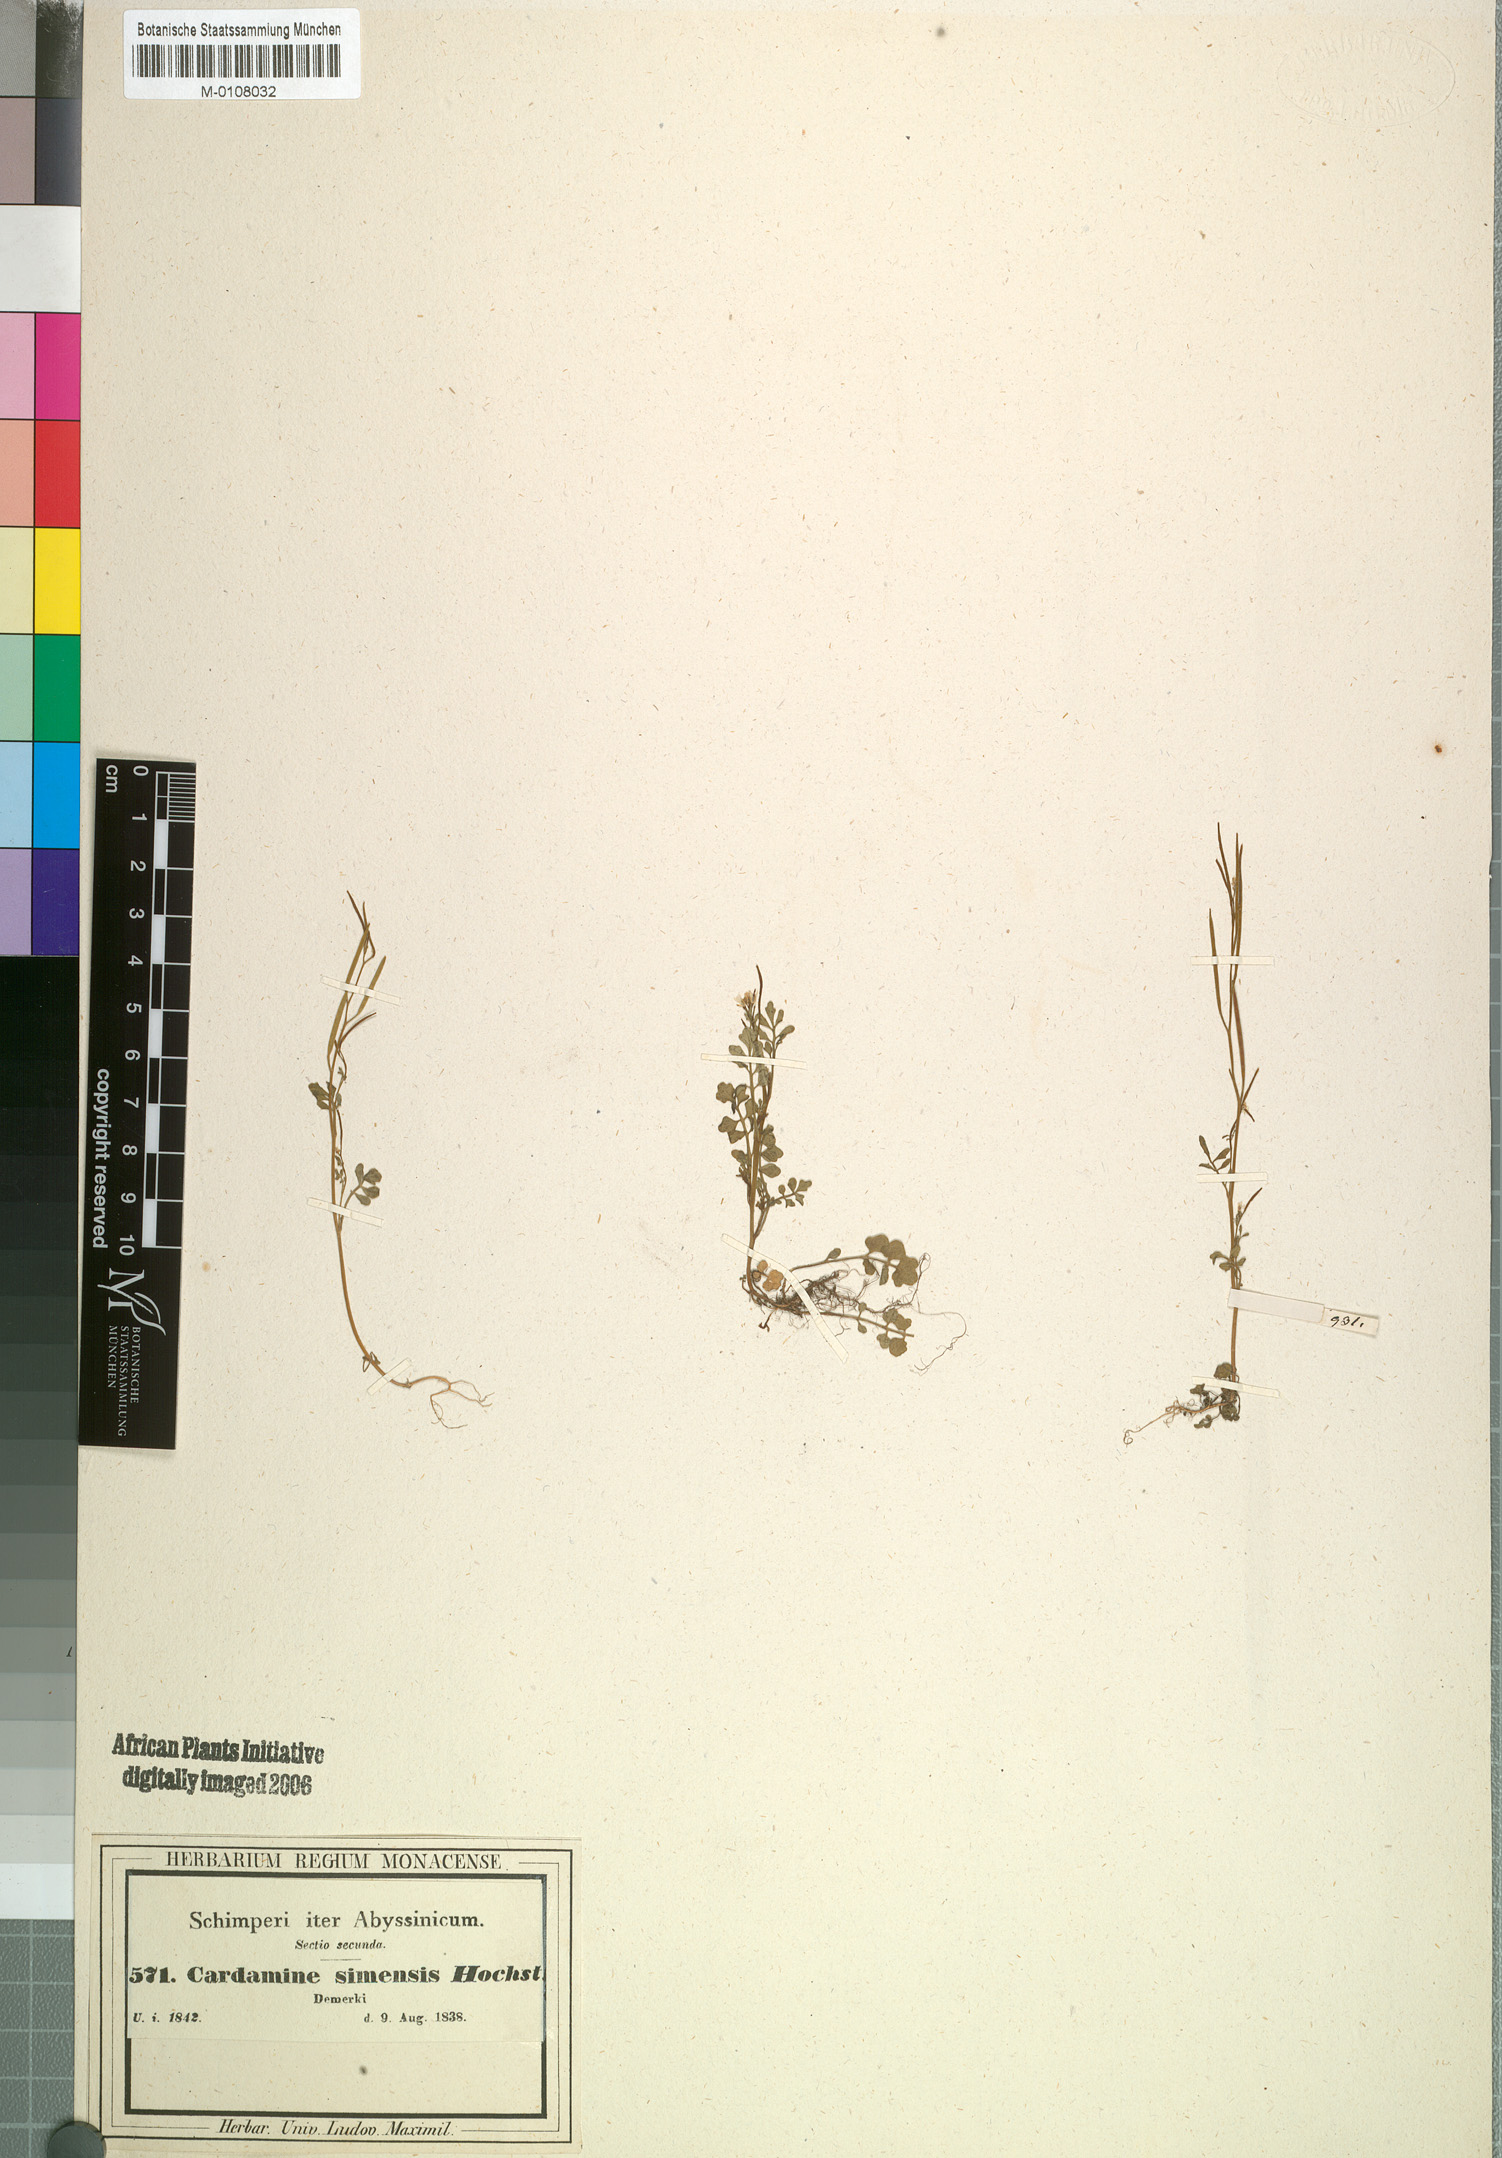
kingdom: Plantae
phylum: Tracheophyta
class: Magnoliopsida
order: Brassicales
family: Brassicaceae
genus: Cardamine
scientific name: Cardamine hirsuta
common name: Hairy bittercress
